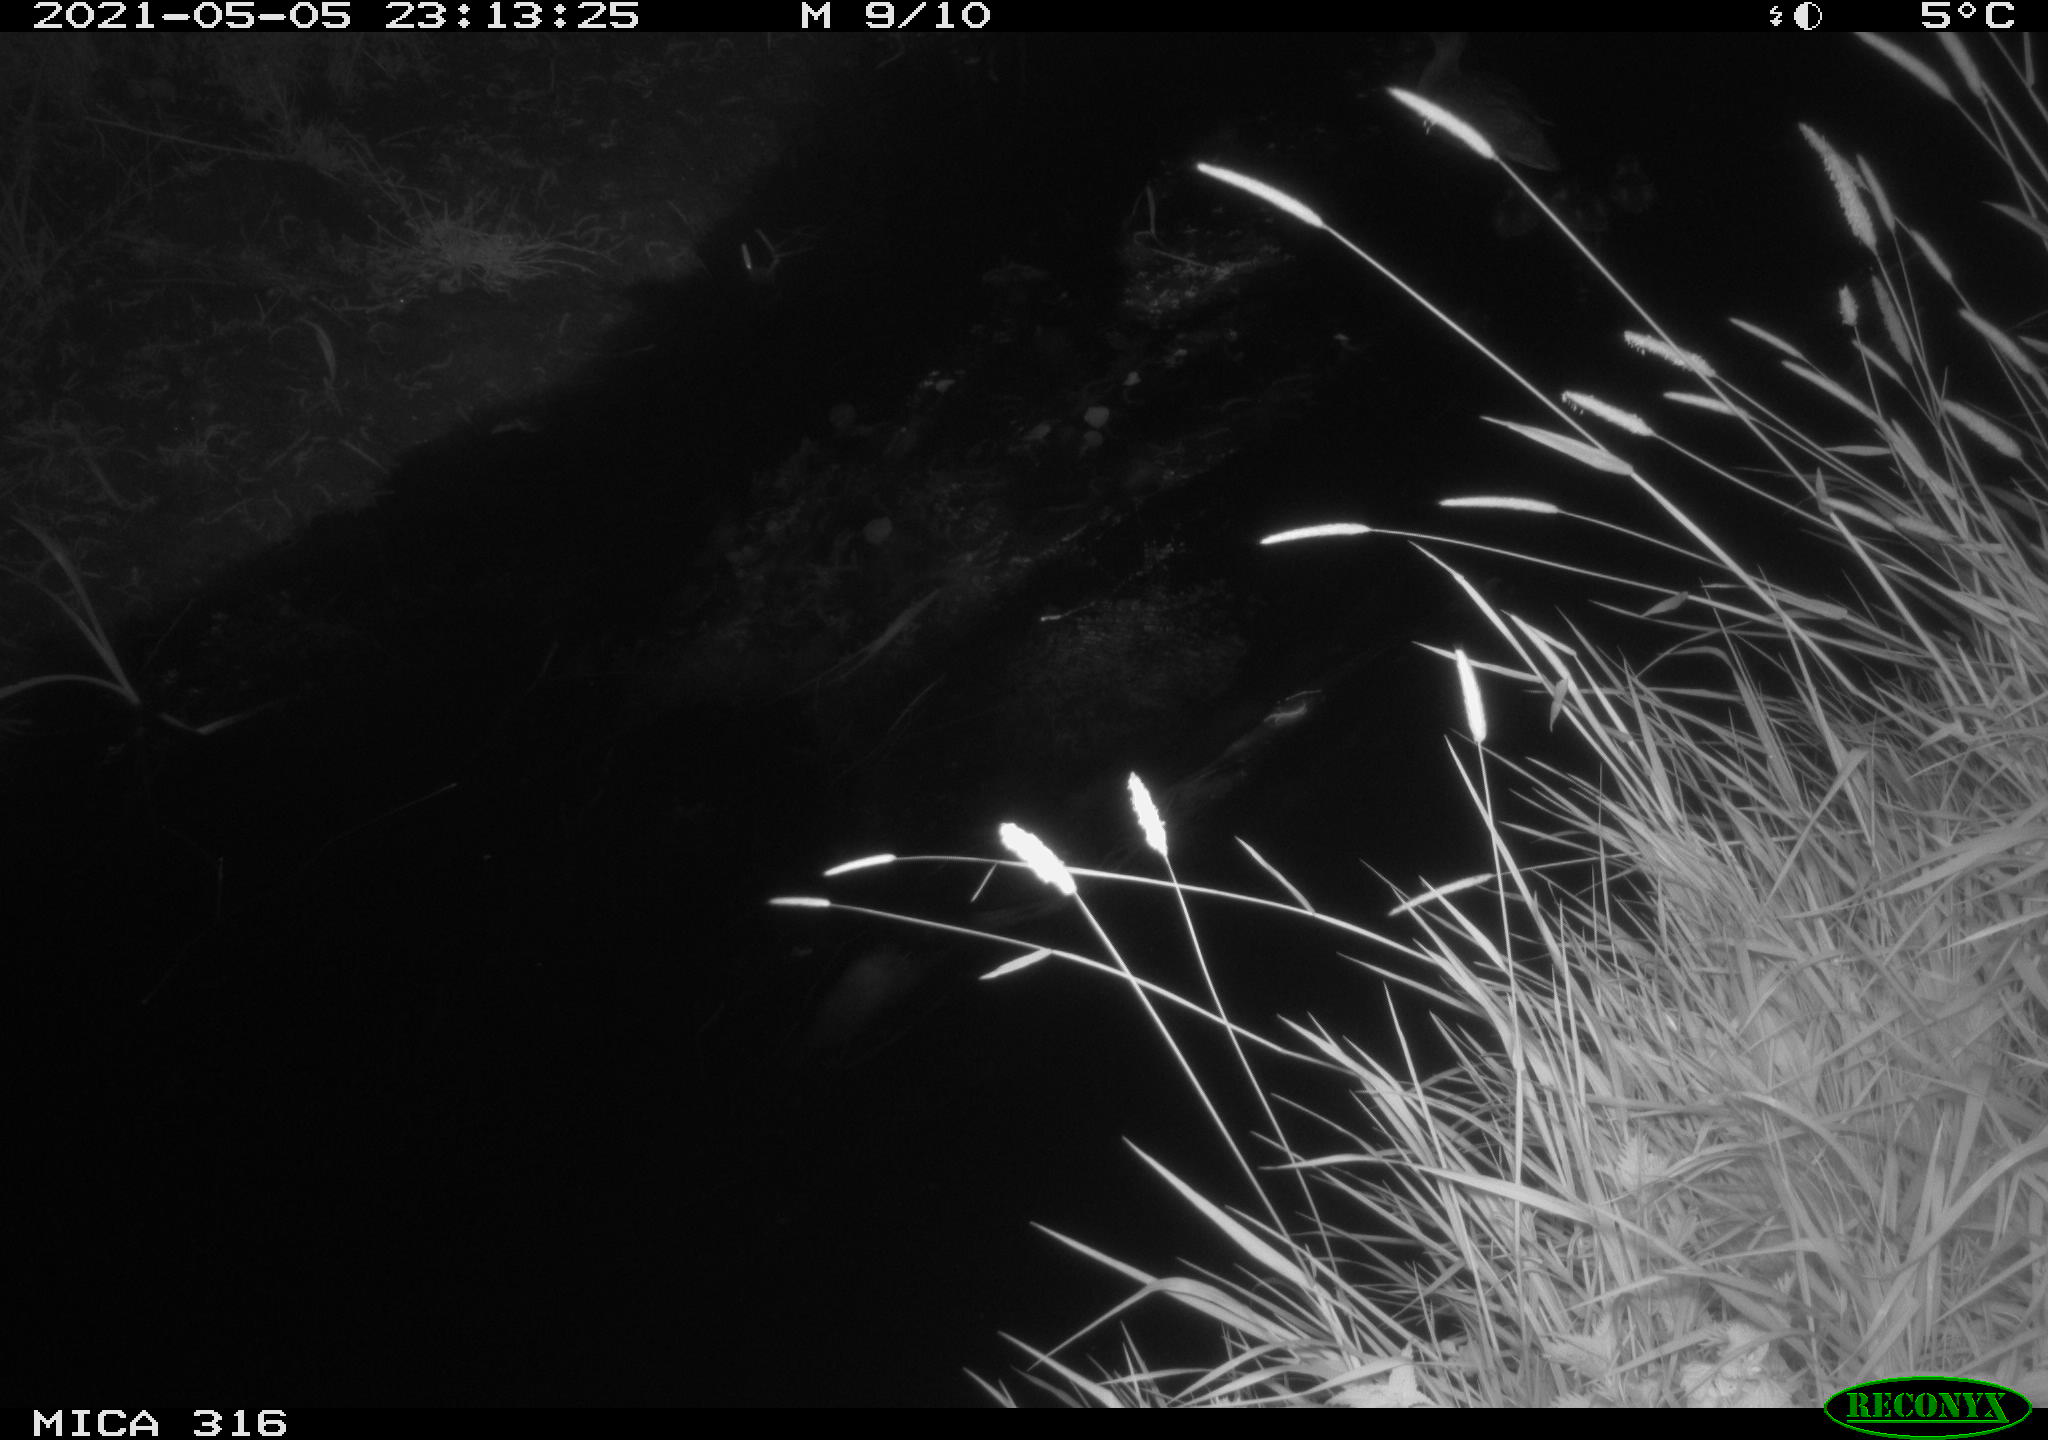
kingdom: Animalia
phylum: Chordata
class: Aves
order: Anseriformes
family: Anatidae
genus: Anas
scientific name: Anas platyrhynchos
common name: Mallard
